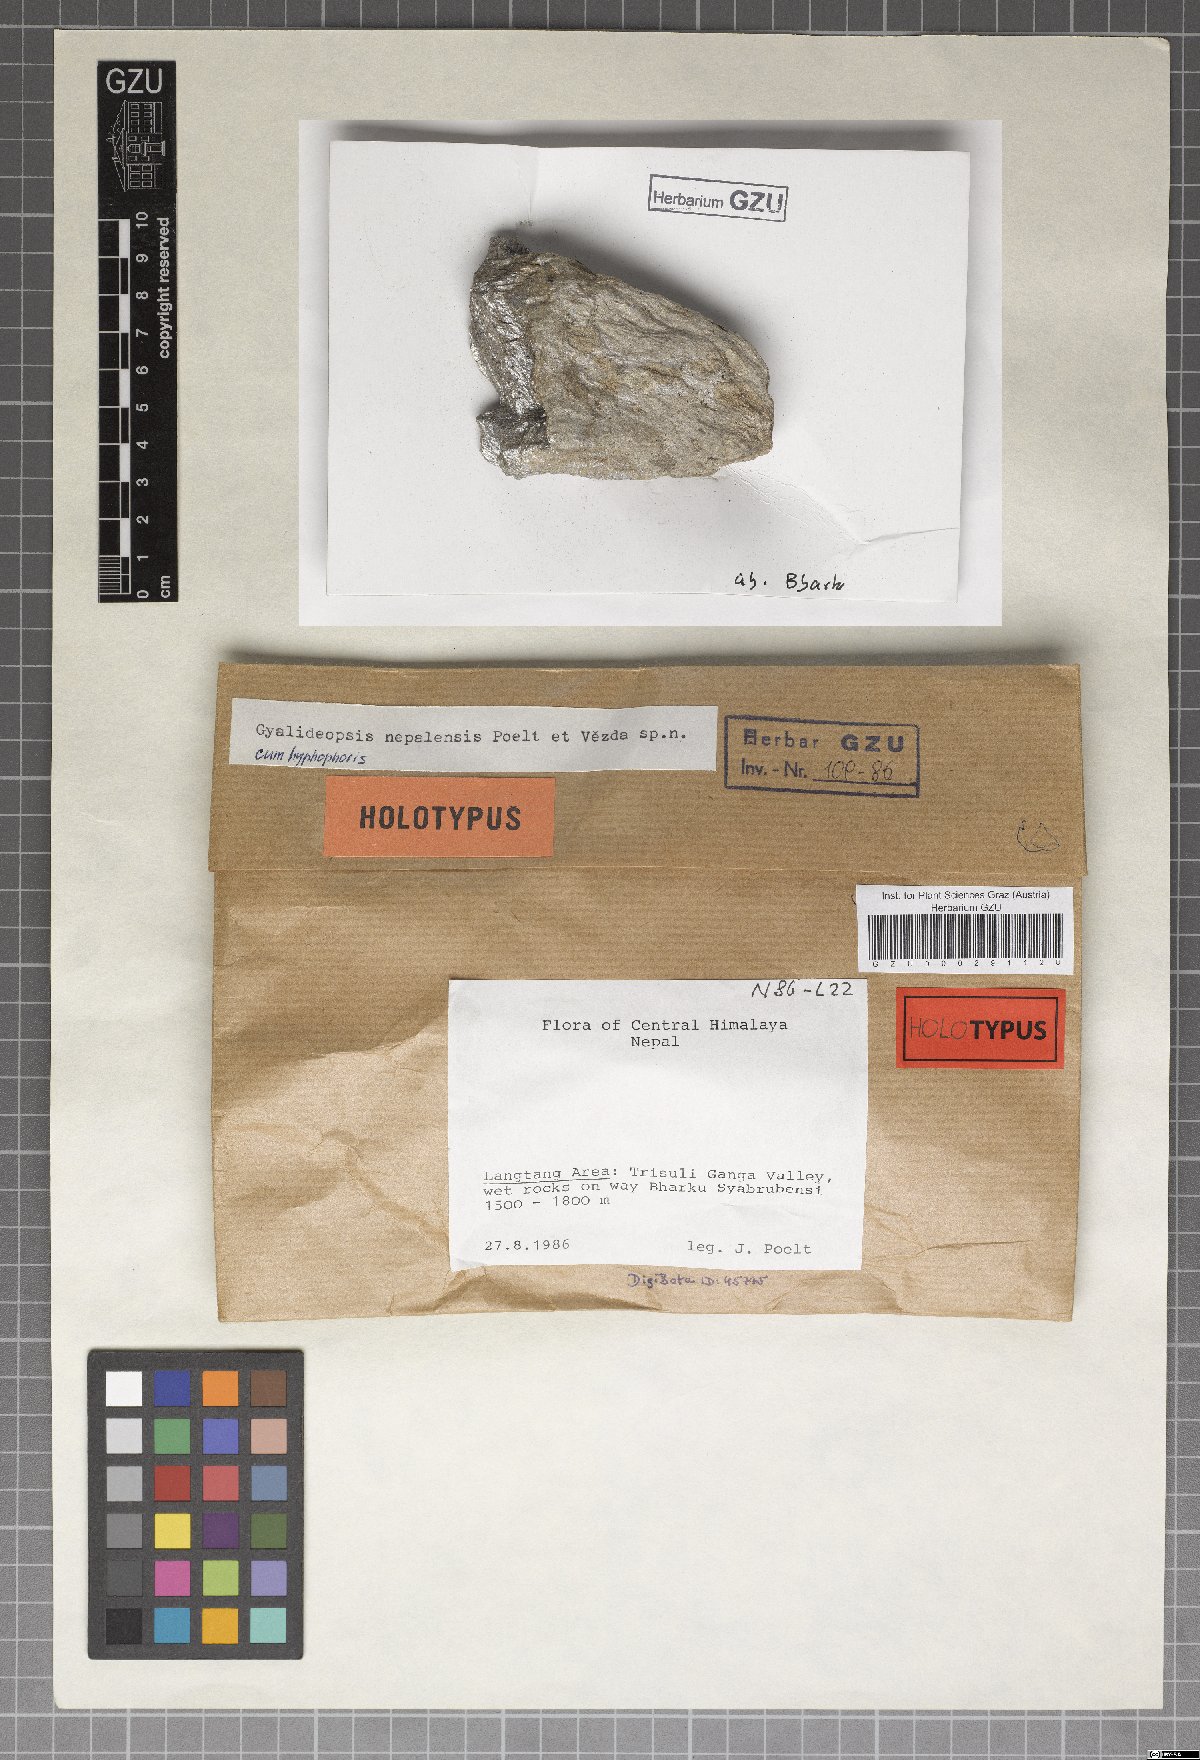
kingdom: Fungi
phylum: Ascomycota
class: Lecanoromycetes
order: Ostropales
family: Gomphillaceae
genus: Gyalideopsis
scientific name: Gyalideopsis nepalensis
